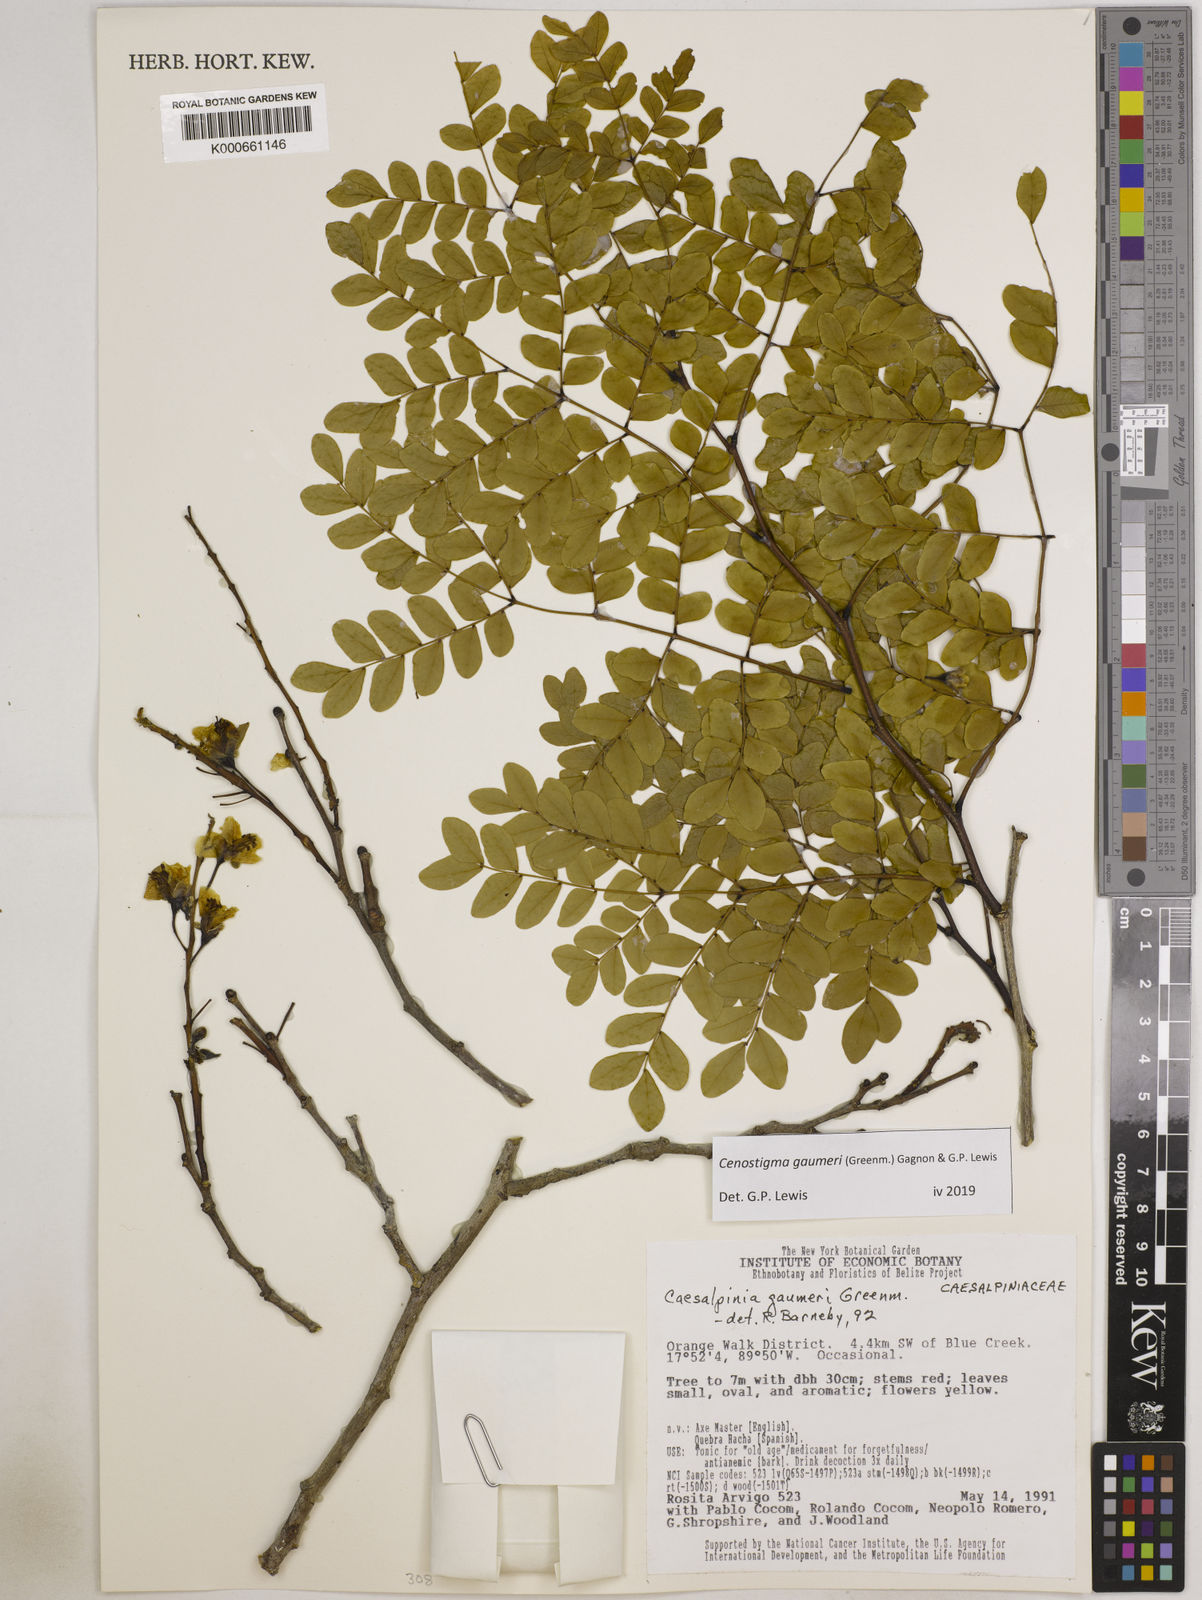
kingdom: Plantae
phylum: Tracheophyta
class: Magnoliopsida
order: Fabales
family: Fabaceae
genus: Cenostigma
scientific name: Cenostigma gaumeri
